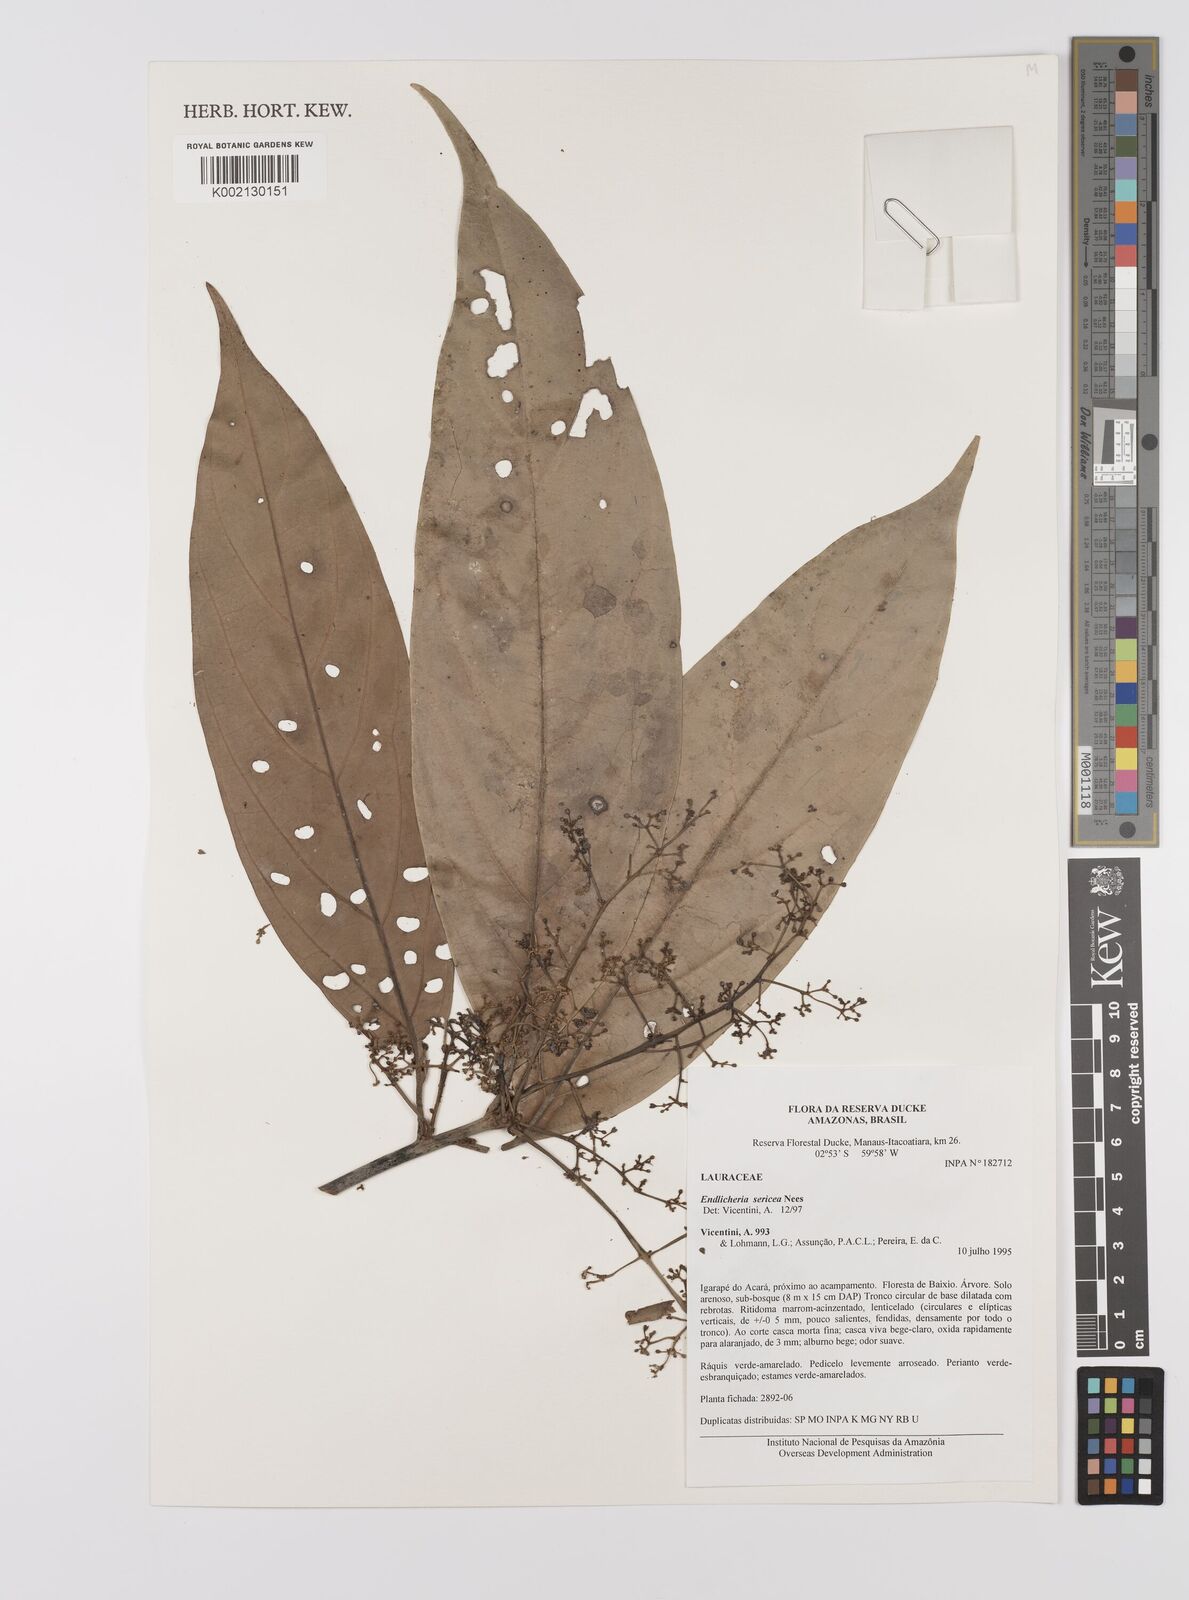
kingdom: Plantae
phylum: Tracheophyta
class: Magnoliopsida
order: Laurales
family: Lauraceae
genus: Endlicheria
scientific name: Endlicheria sericea
